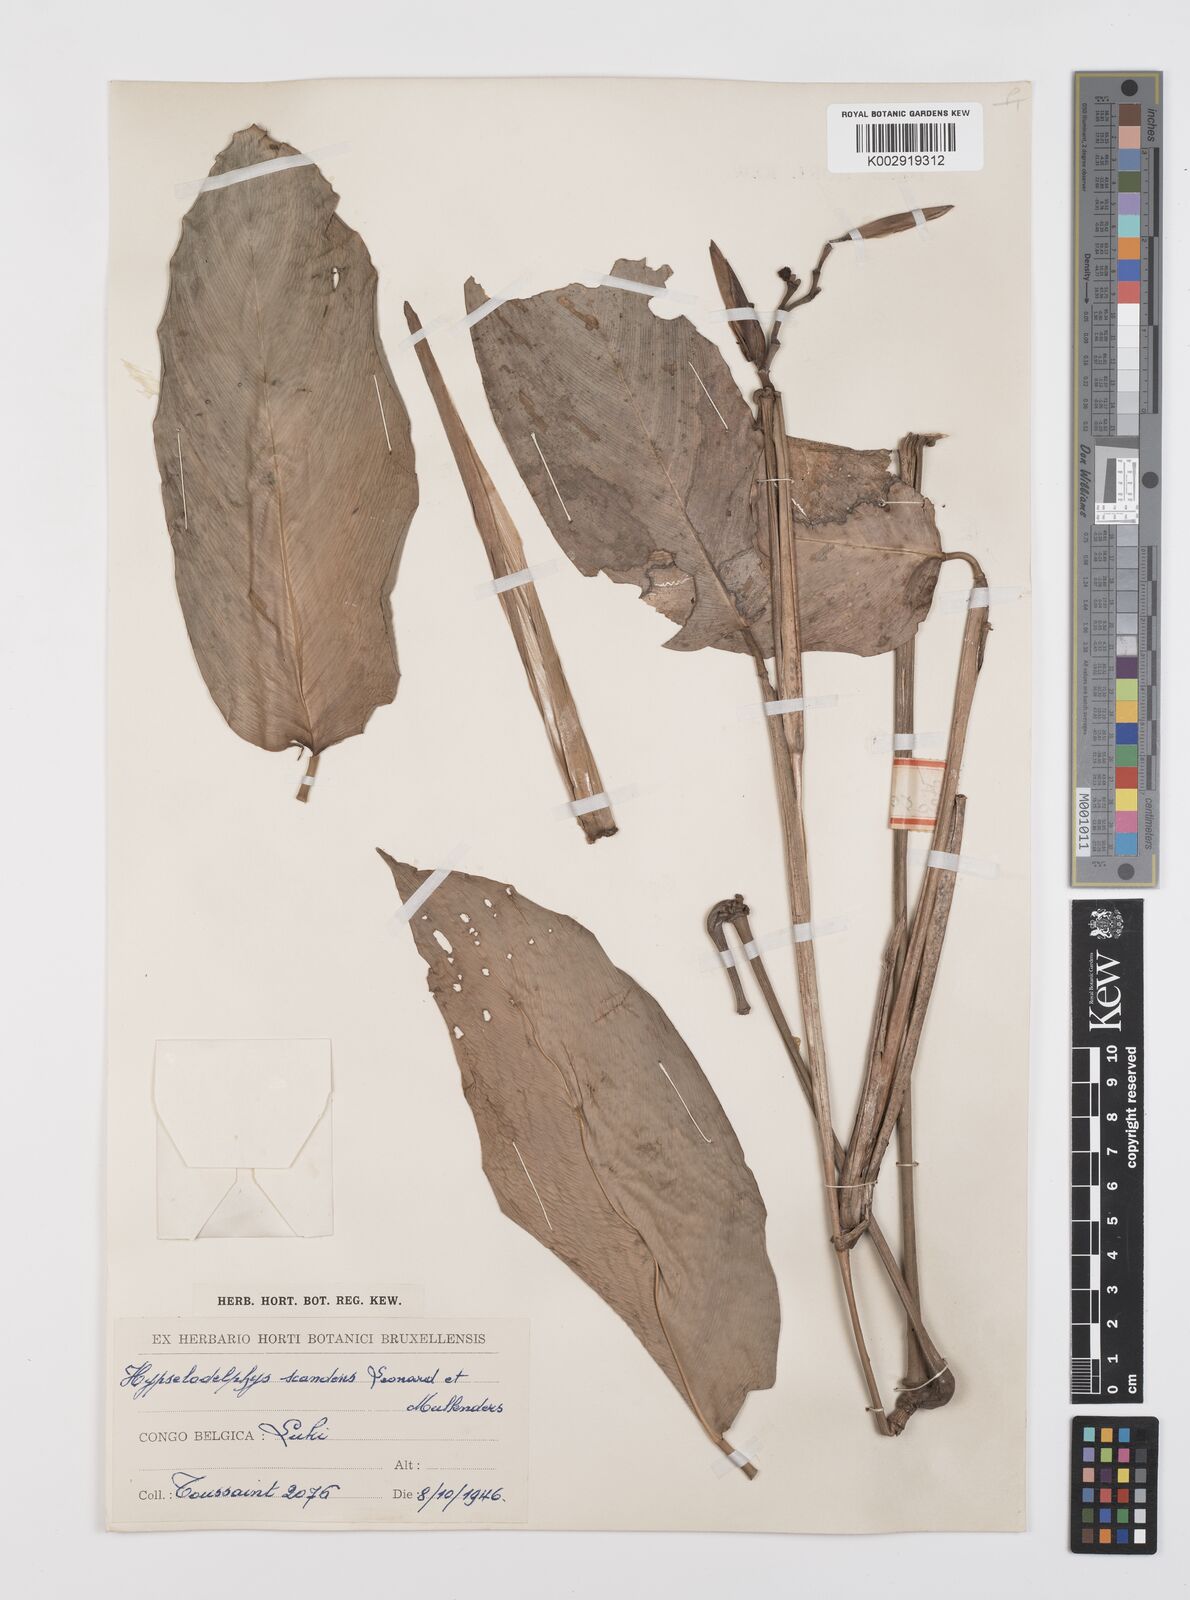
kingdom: Plantae
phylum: Tracheophyta
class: Liliopsida
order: Zingiberales
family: Marantaceae
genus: Hypselodelphys
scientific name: Hypselodelphys scandens
